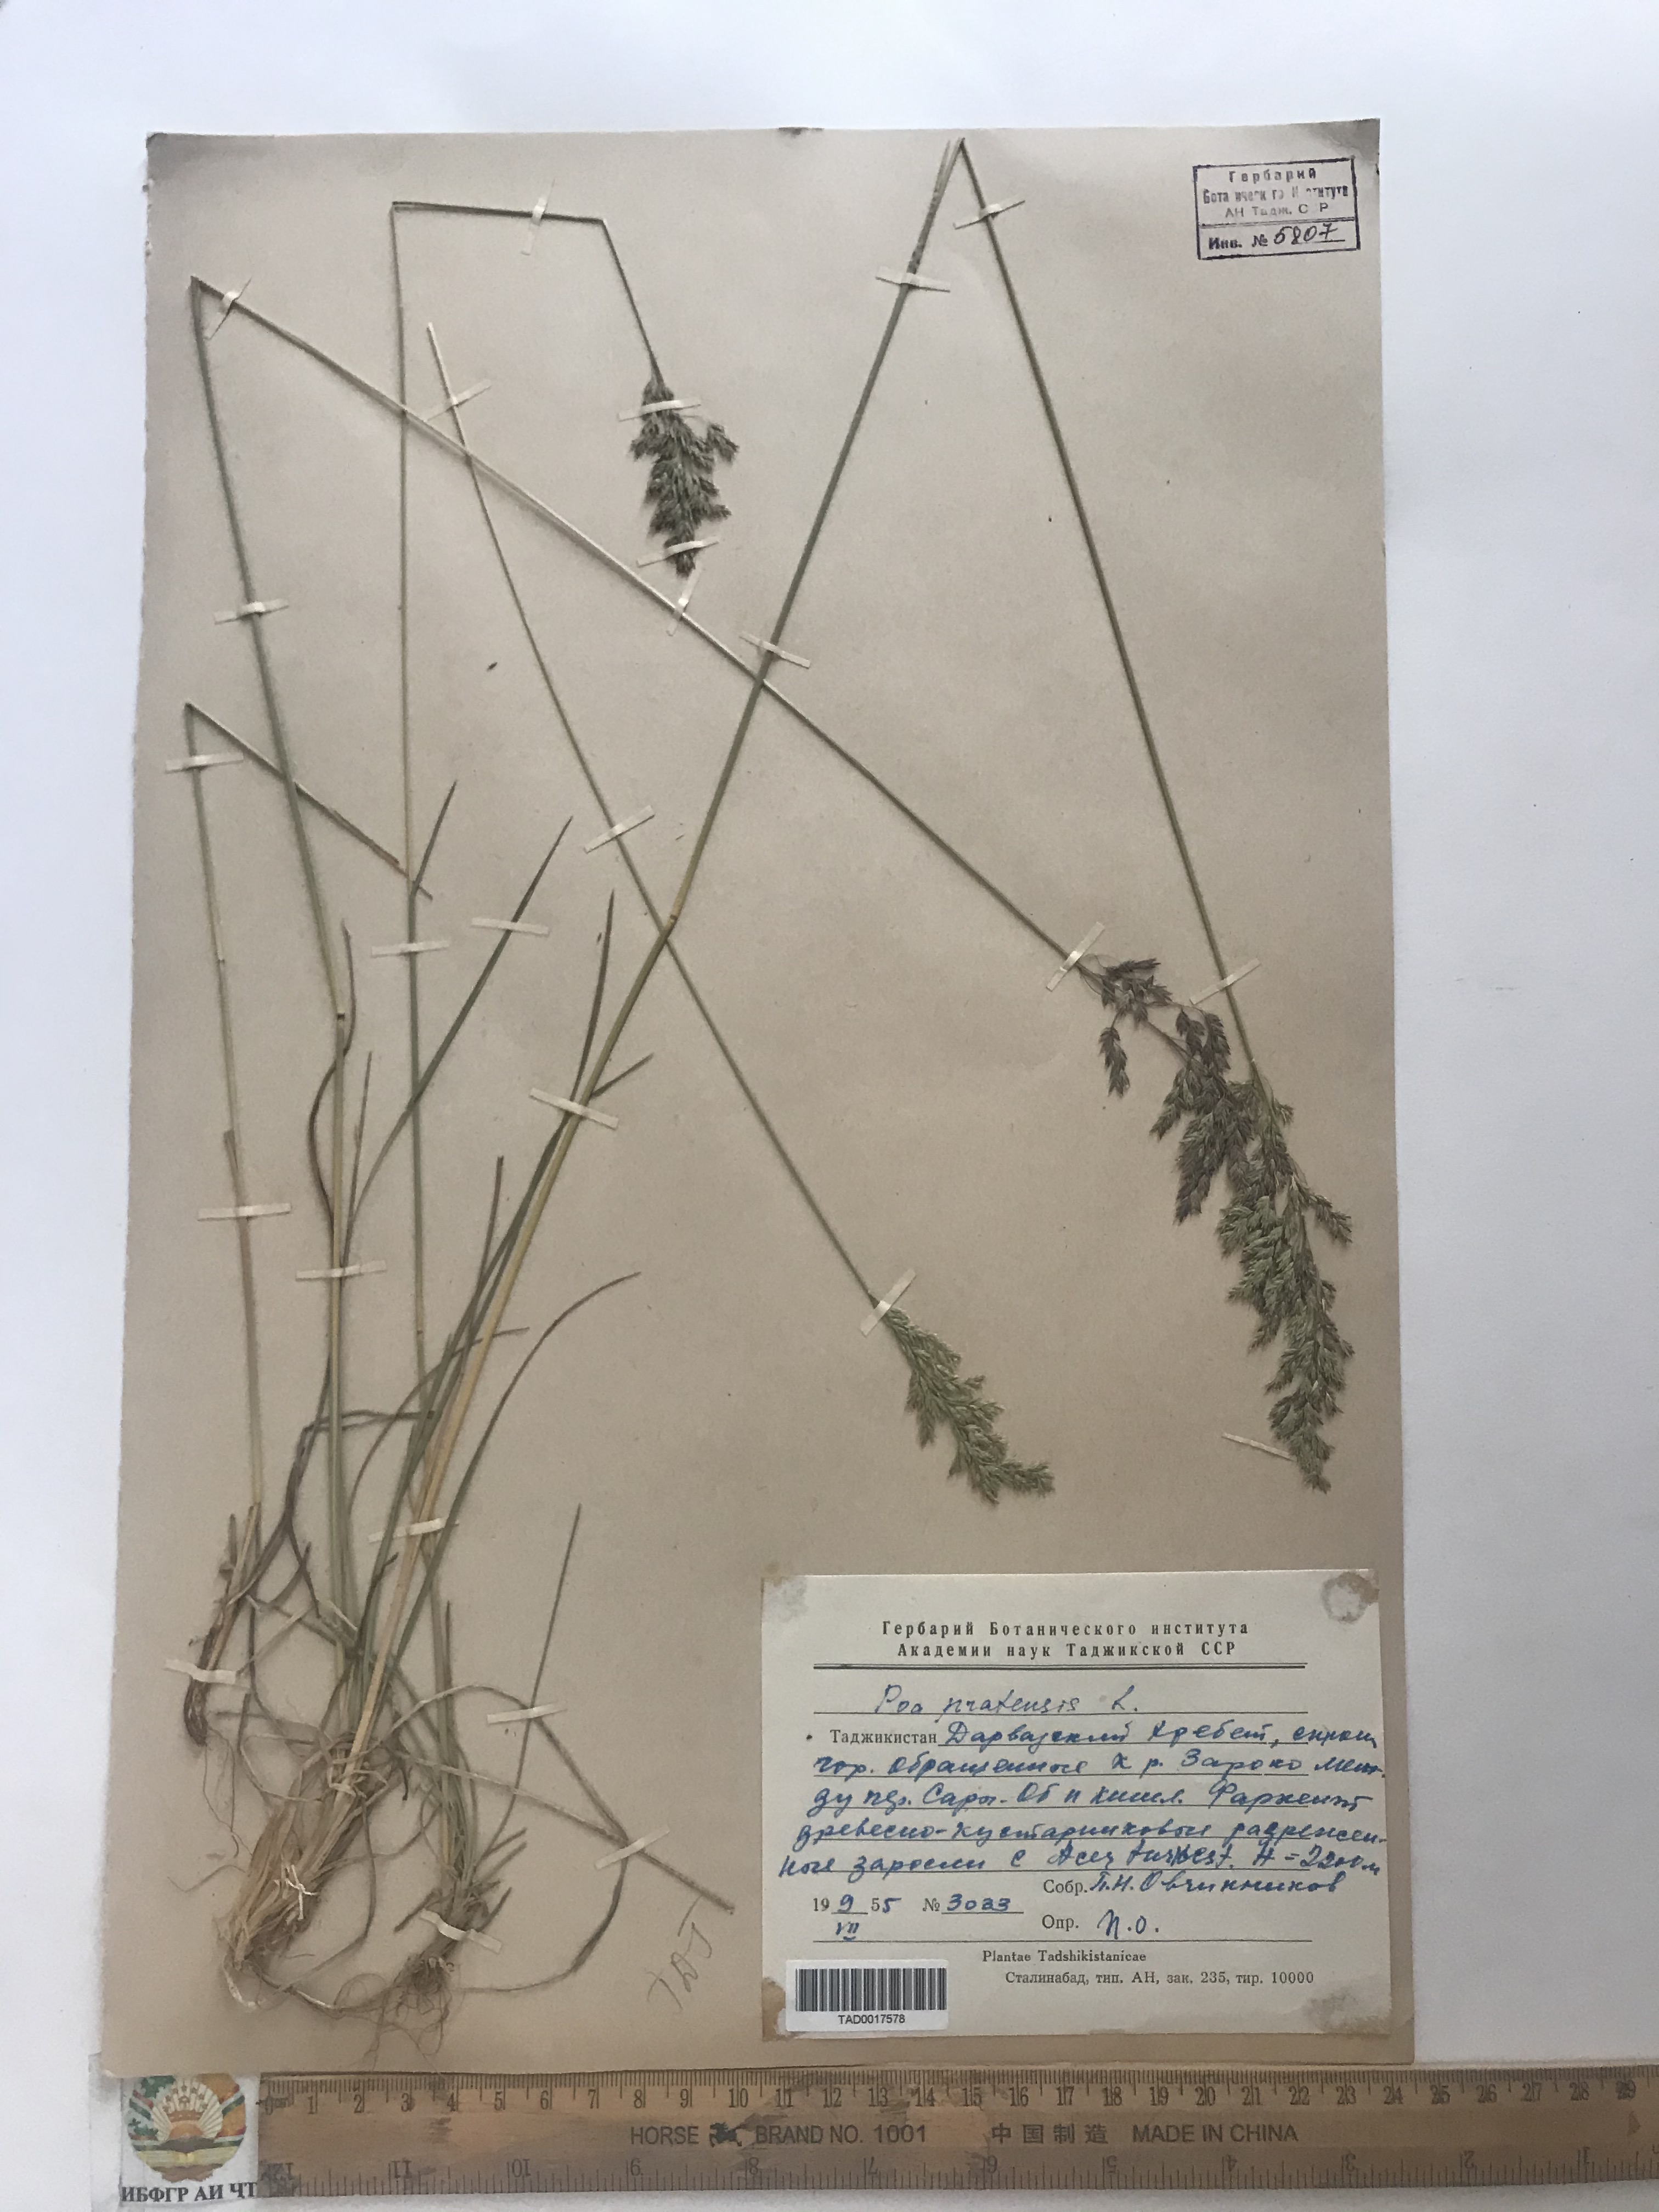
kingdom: Plantae
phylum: Tracheophyta
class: Liliopsida
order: Poales
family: Poaceae
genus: Poa
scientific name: Poa pratensis
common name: Kentucky bluegrass
